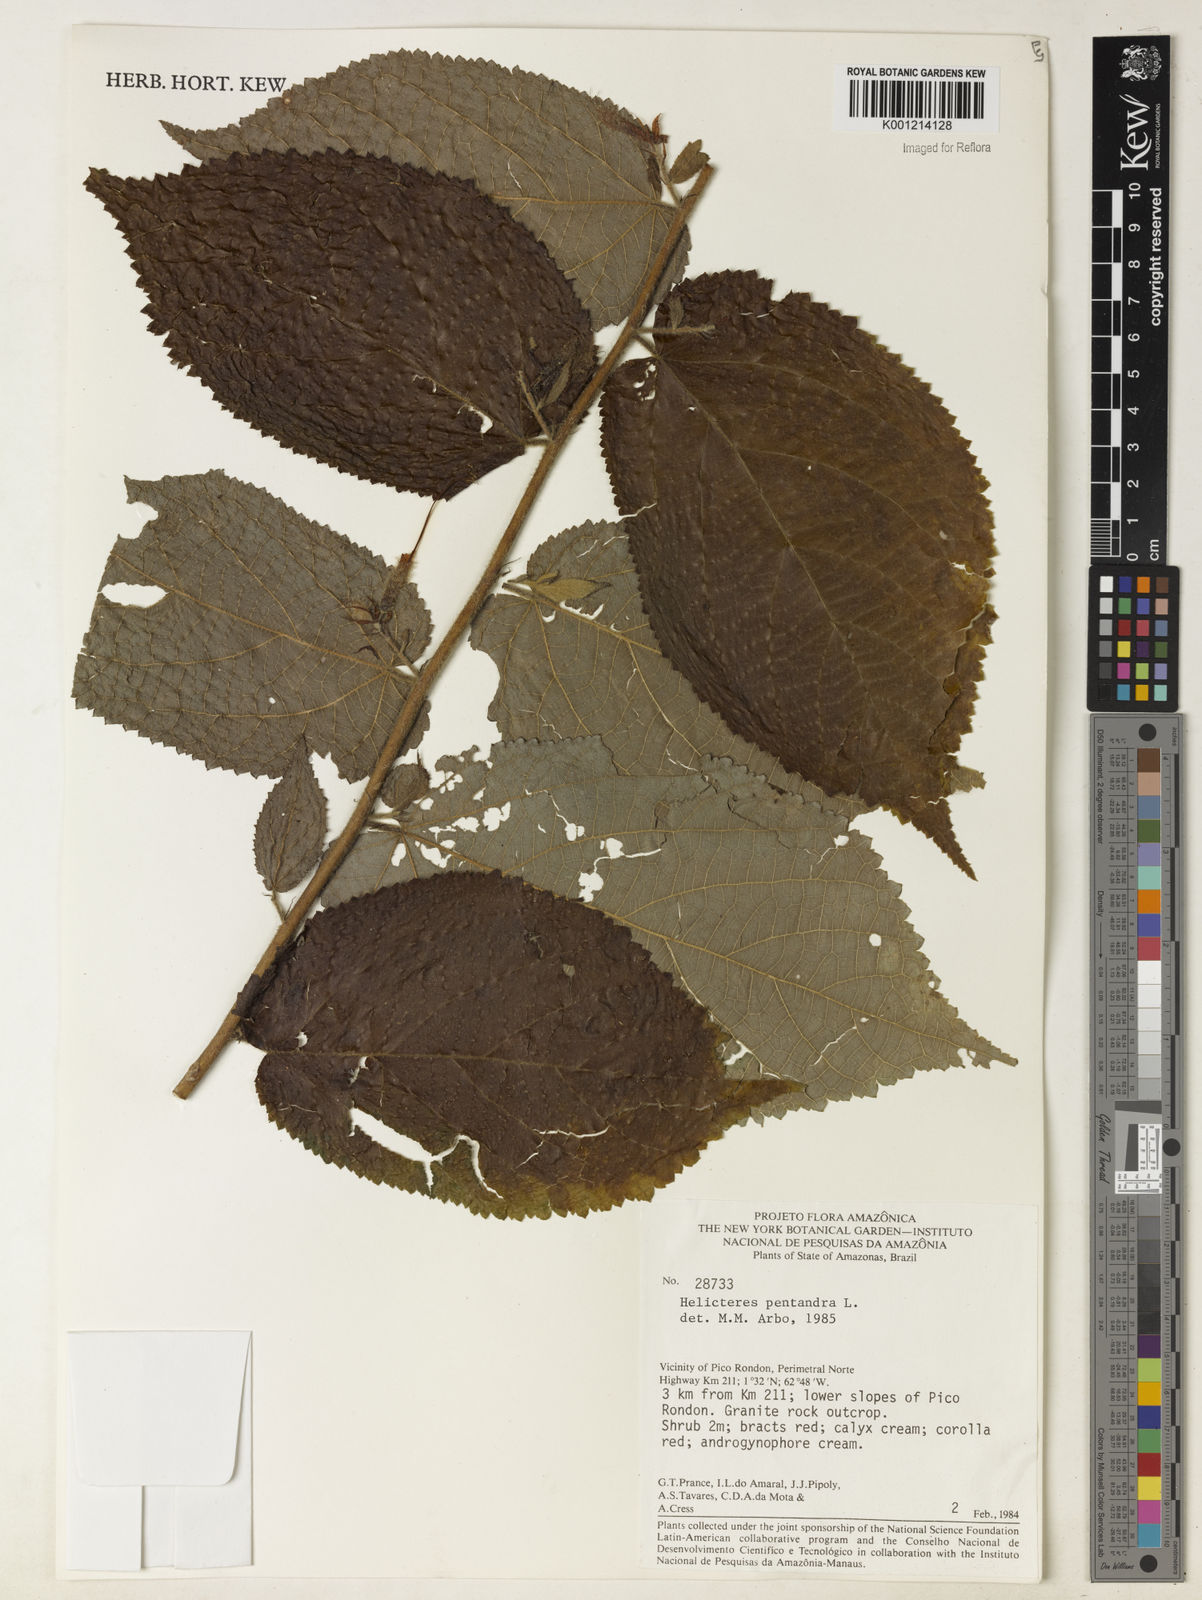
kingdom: Plantae
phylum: Tracheophyta
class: Magnoliopsida
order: Malvales
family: Malvaceae
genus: Helicteres
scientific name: Helicteres pentandra
